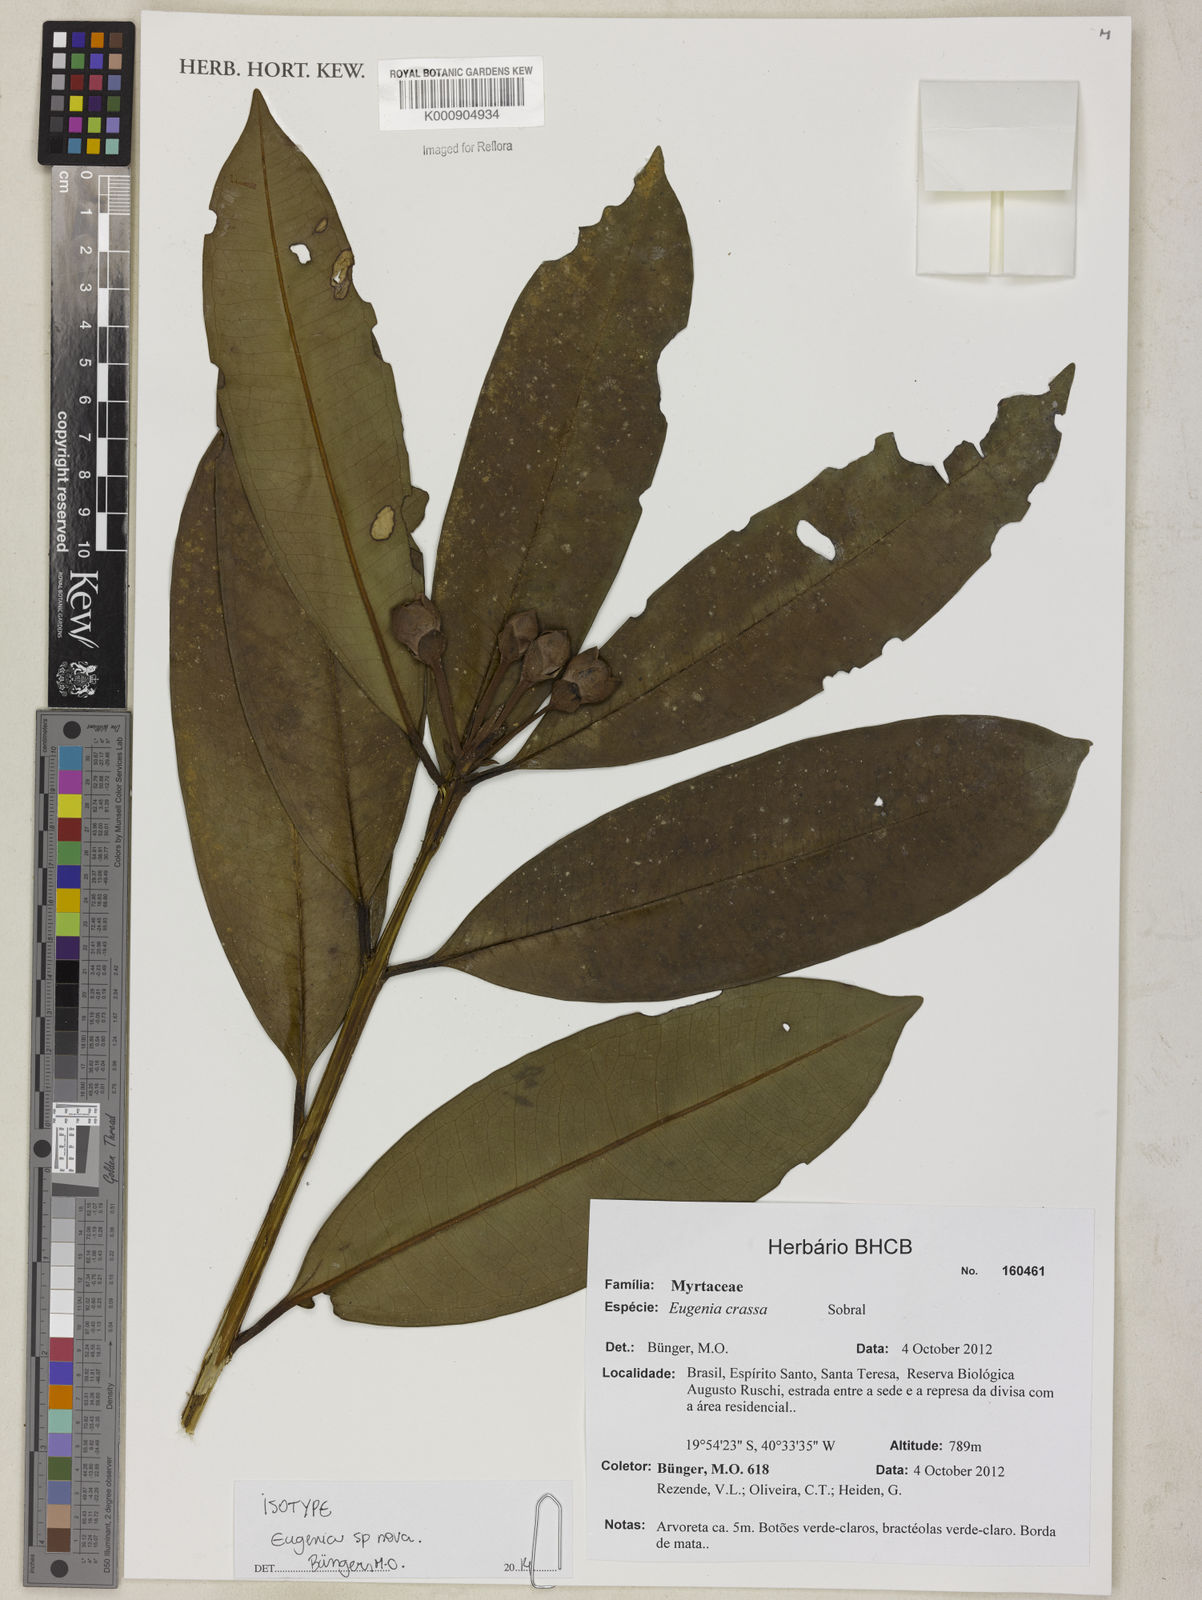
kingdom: Plantae
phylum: Tracheophyta
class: Magnoliopsida
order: Myrtales
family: Myrtaceae
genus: Eugenia
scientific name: Eugenia
